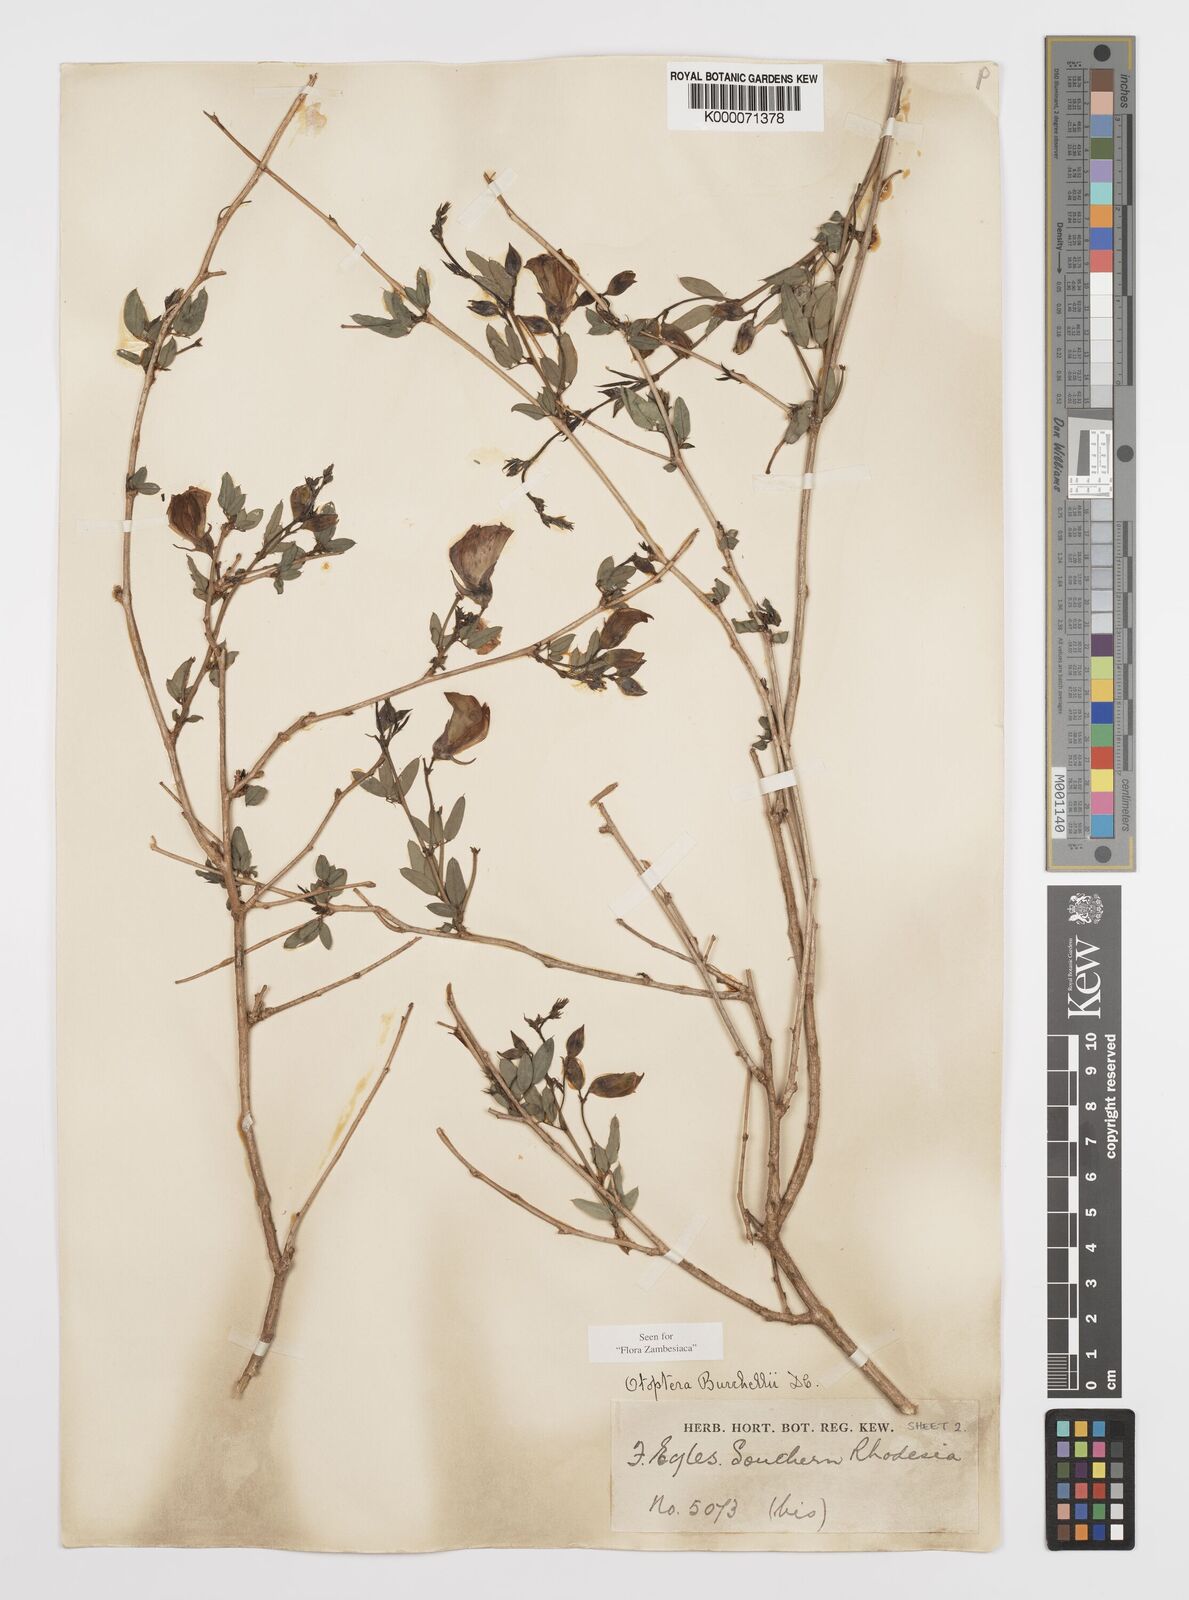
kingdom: Plantae
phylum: Tracheophyta
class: Magnoliopsida
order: Fabales
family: Fabaceae
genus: Otoptera
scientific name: Otoptera burchellii
